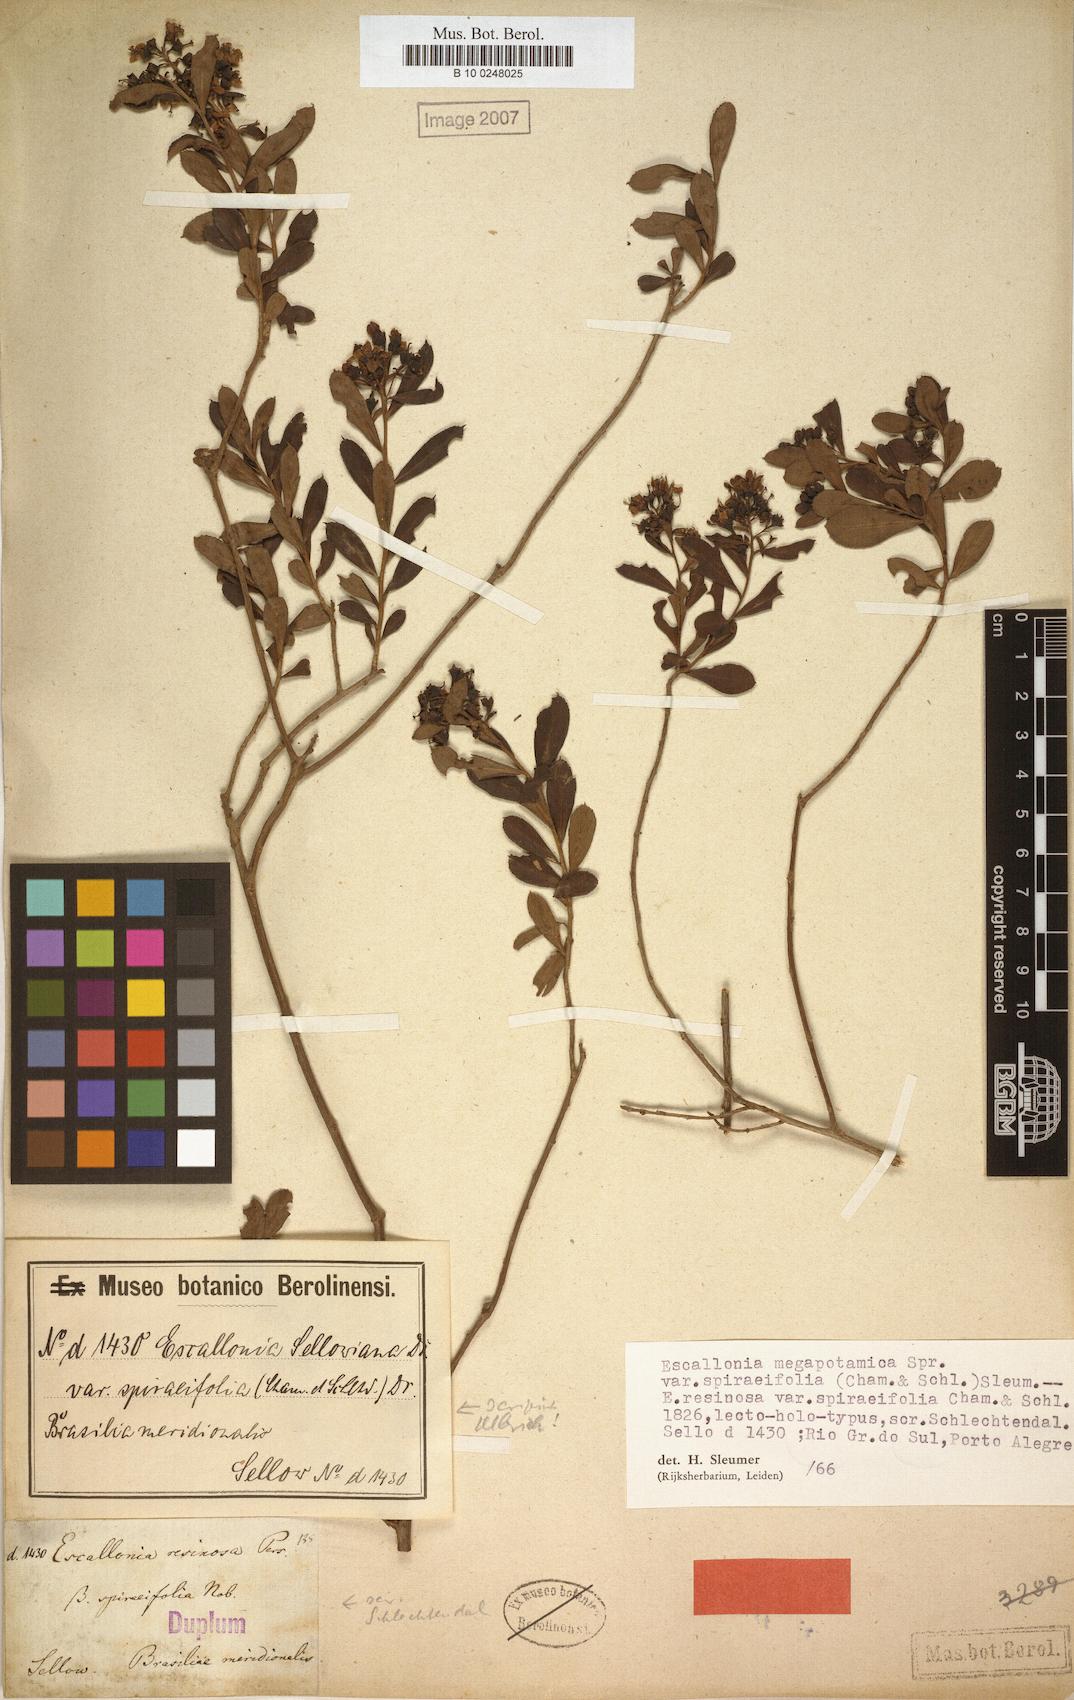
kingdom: Plantae
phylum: Tracheophyta
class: Magnoliopsida
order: Escalloniales
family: Escalloniaceae
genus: Escallonia
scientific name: Escallonia megapotamica
